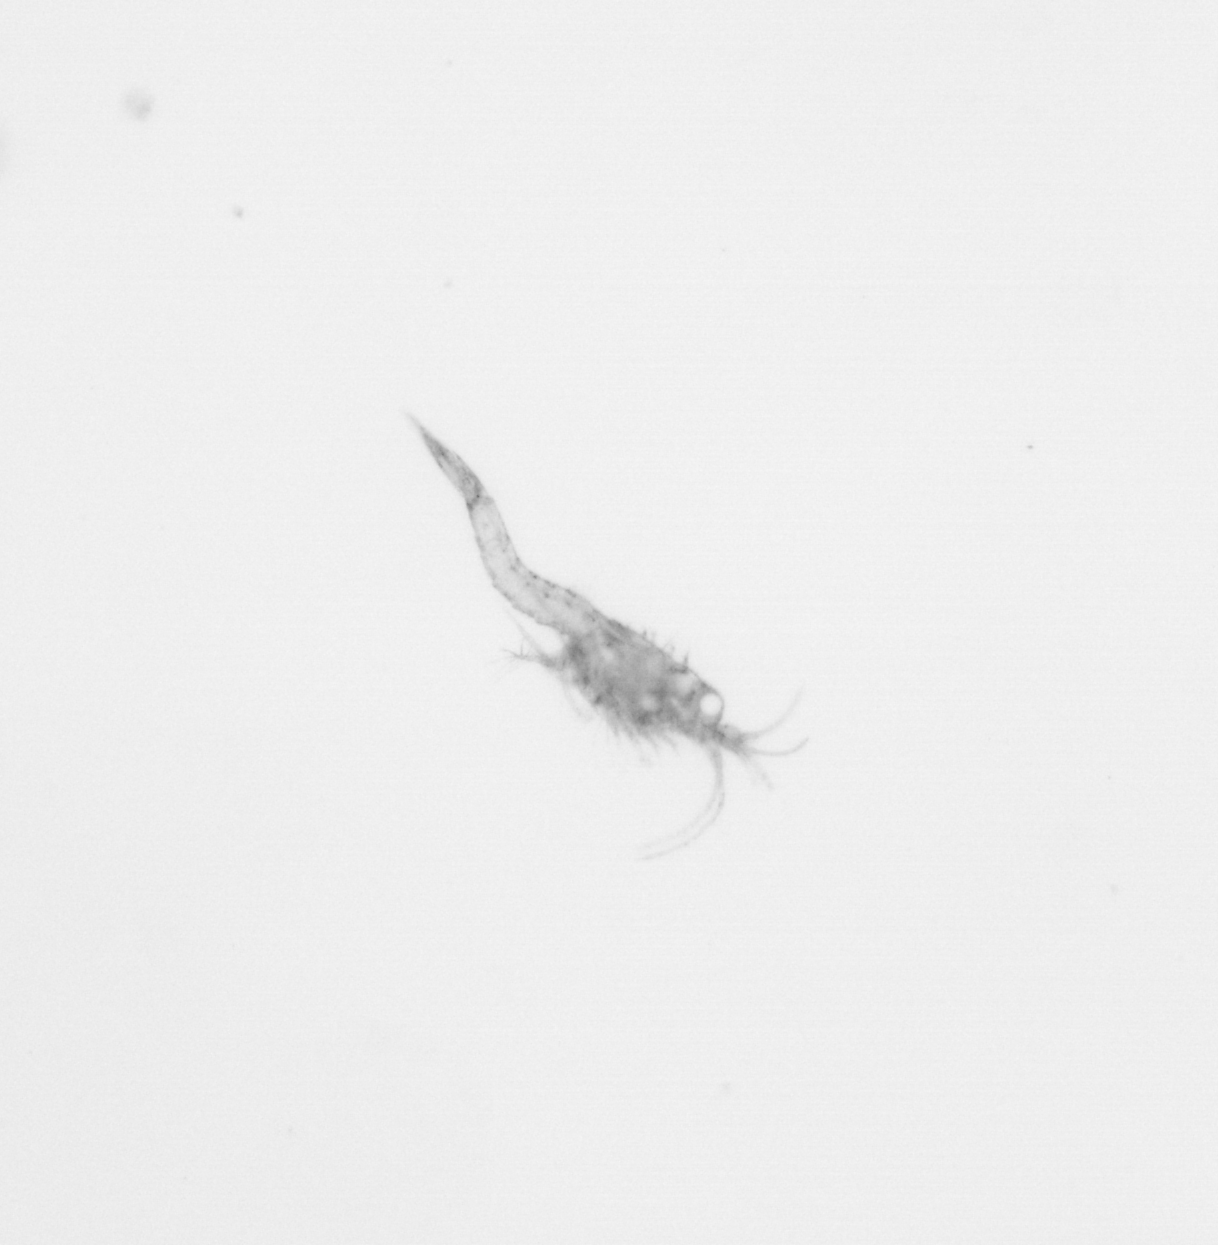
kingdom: Animalia
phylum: Arthropoda
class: Malacostraca
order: Decapoda
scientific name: Decapoda
